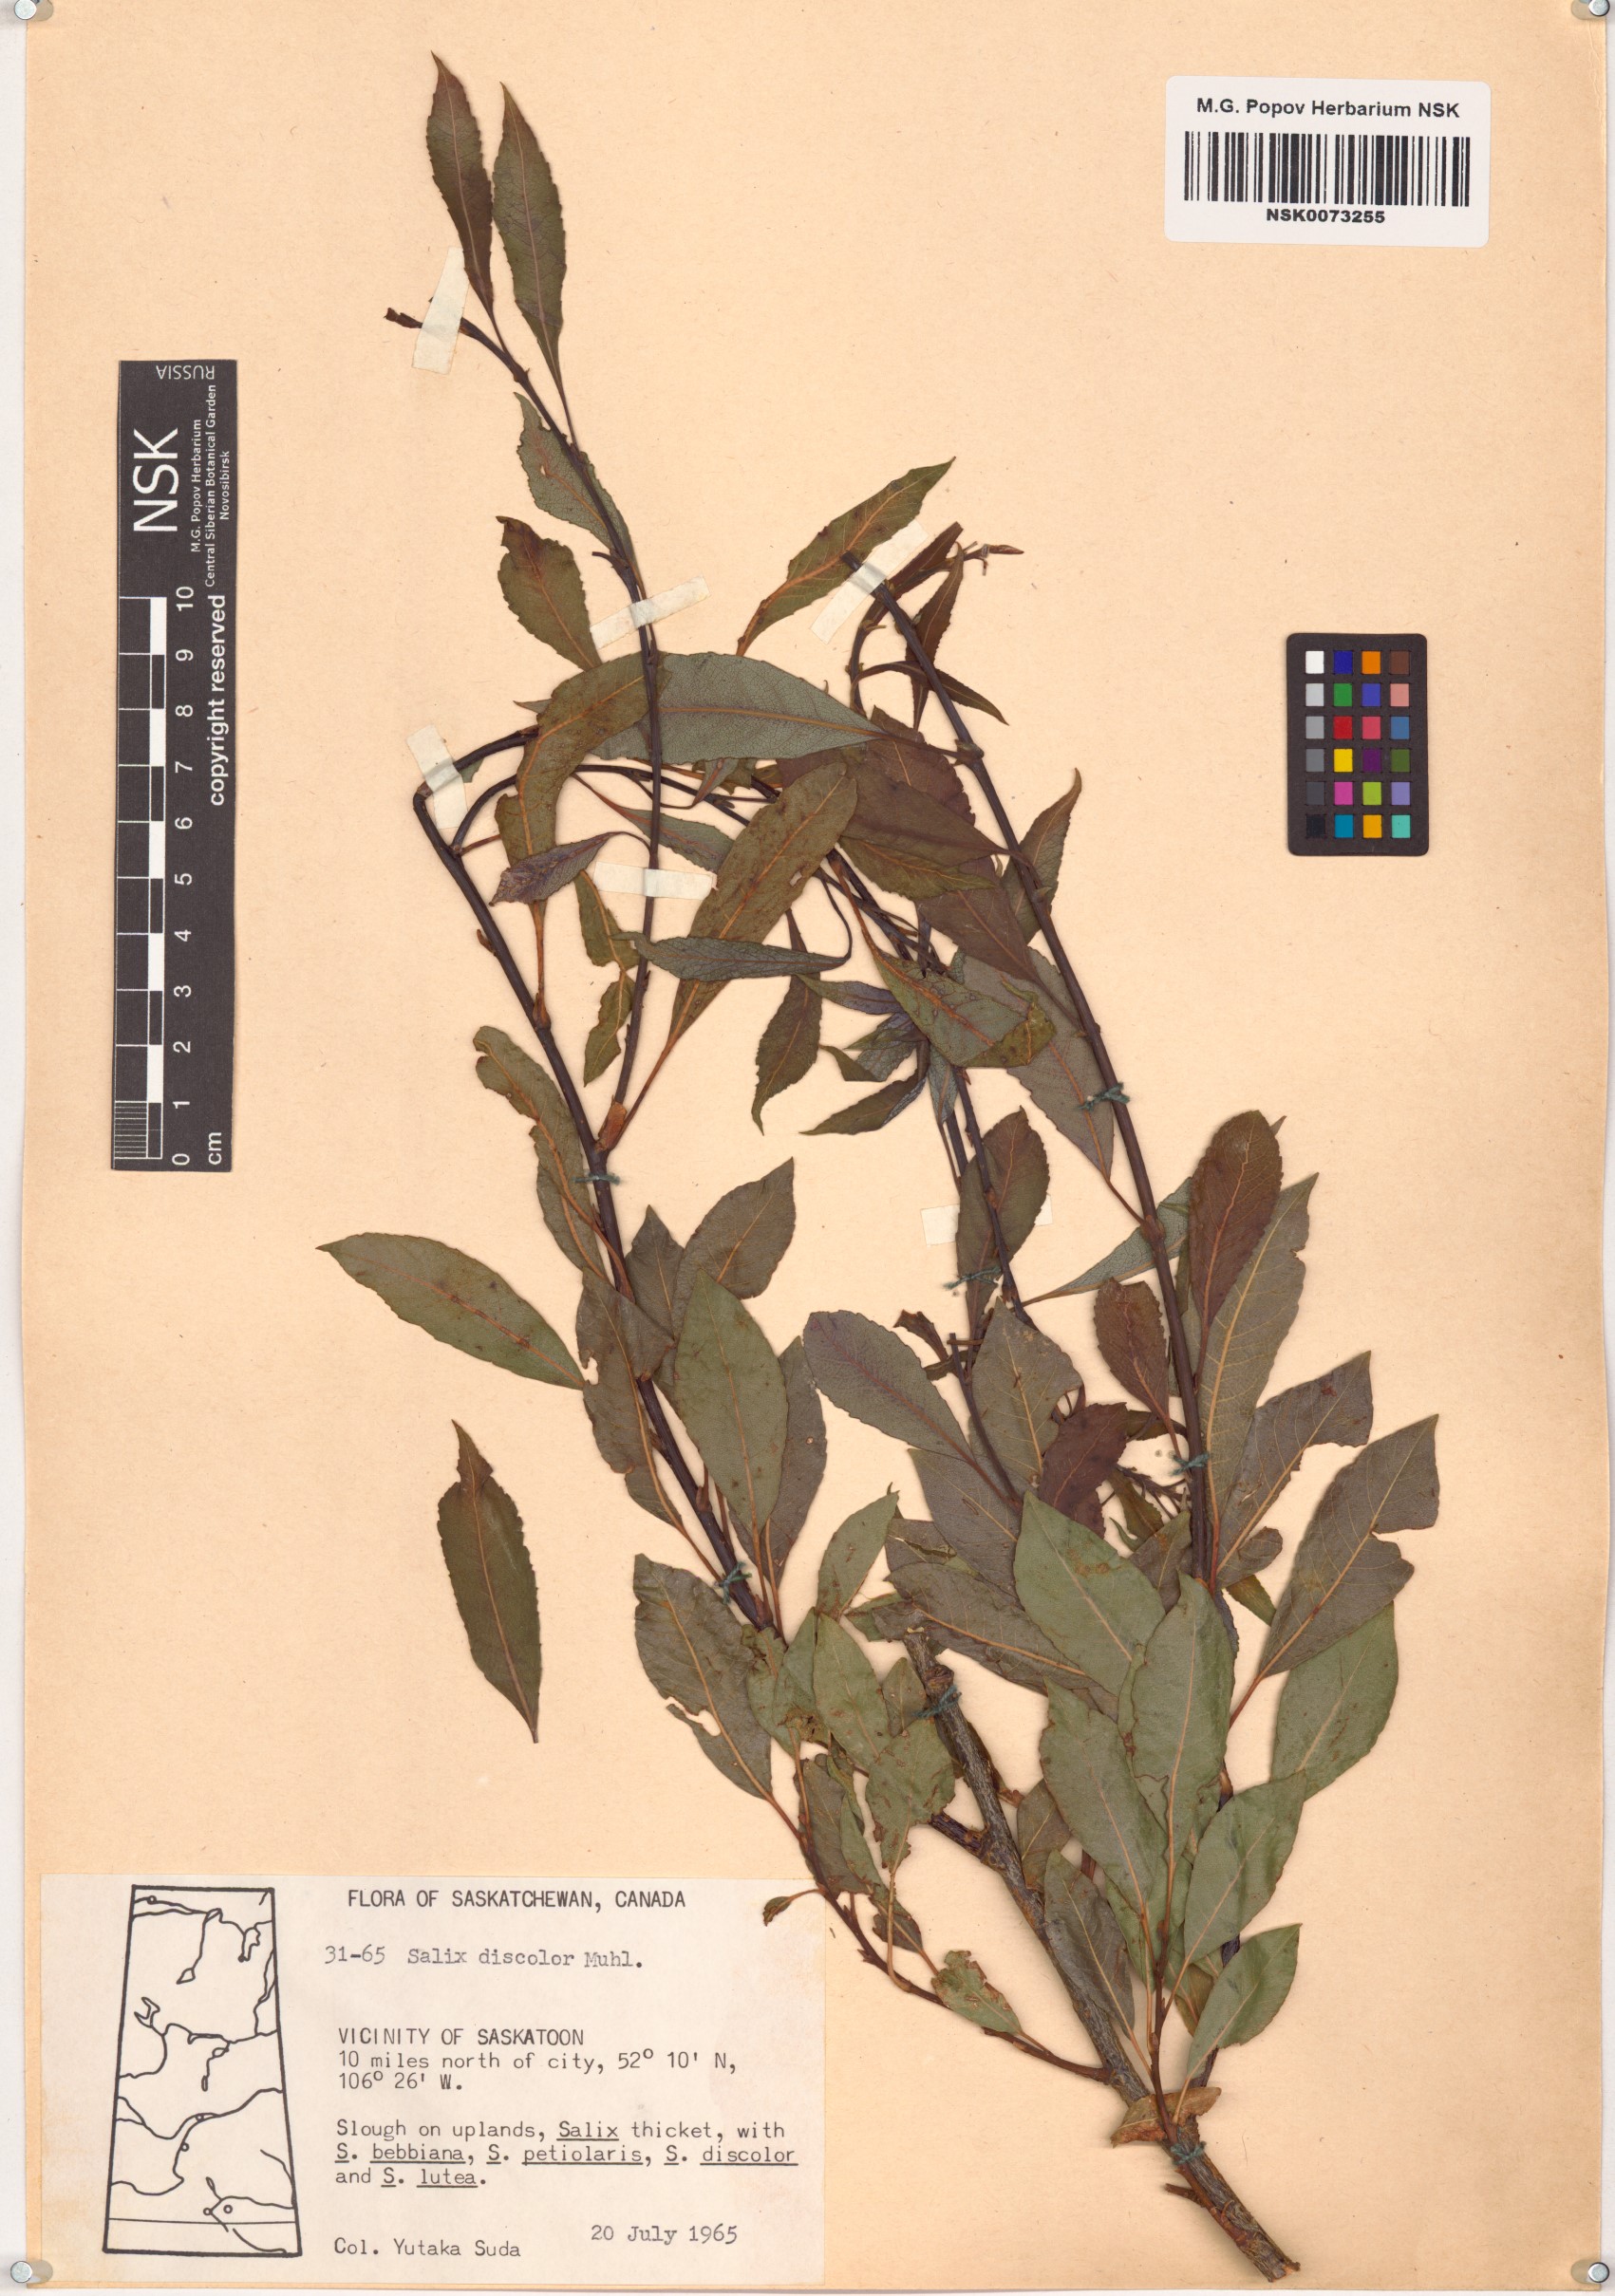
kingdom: Plantae
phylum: Tracheophyta
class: Magnoliopsida
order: Malpighiales
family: Salicaceae
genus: Salix
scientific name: Salix discolor
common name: Glaucous willow
